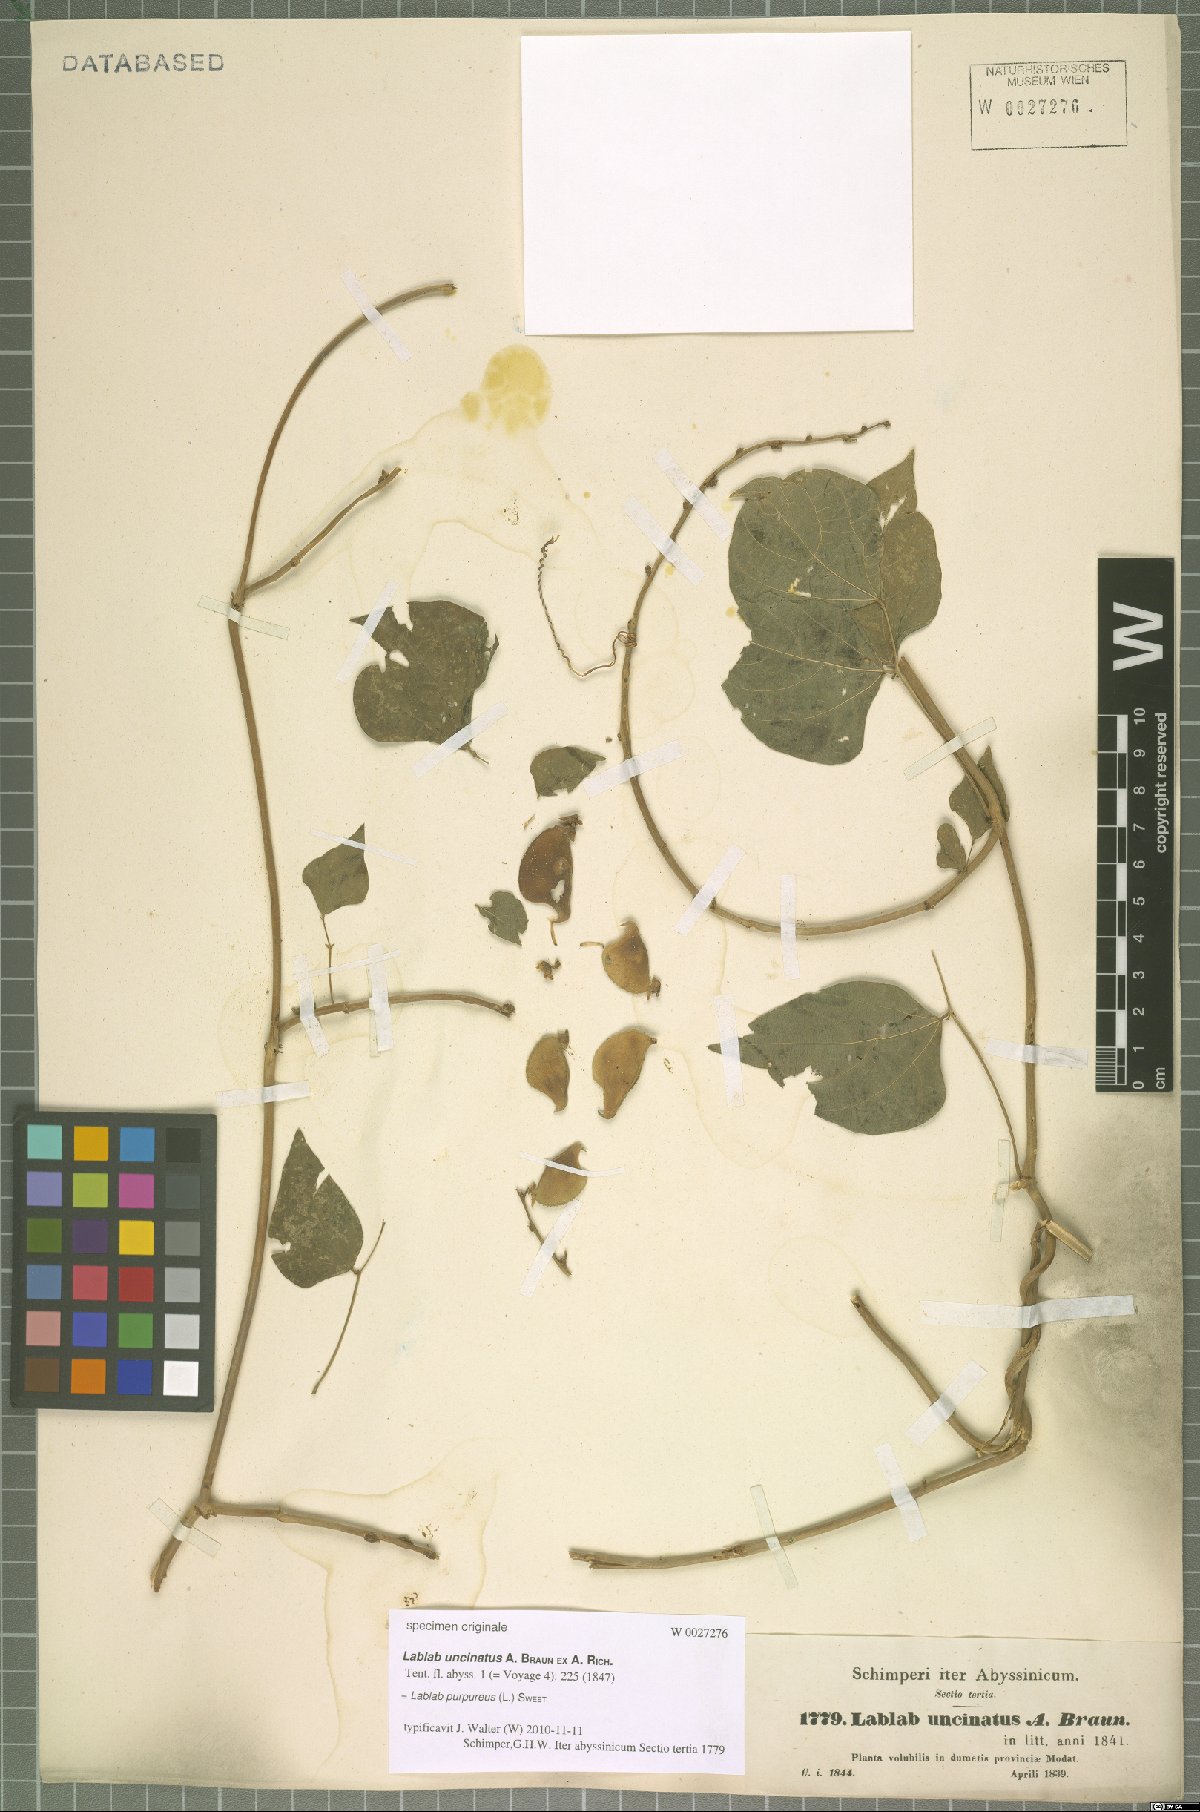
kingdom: Plantae
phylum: Tracheophyta
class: Magnoliopsida
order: Fabales
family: Fabaceae
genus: Lablab
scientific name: Lablab purpureus
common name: Lablab-bean
